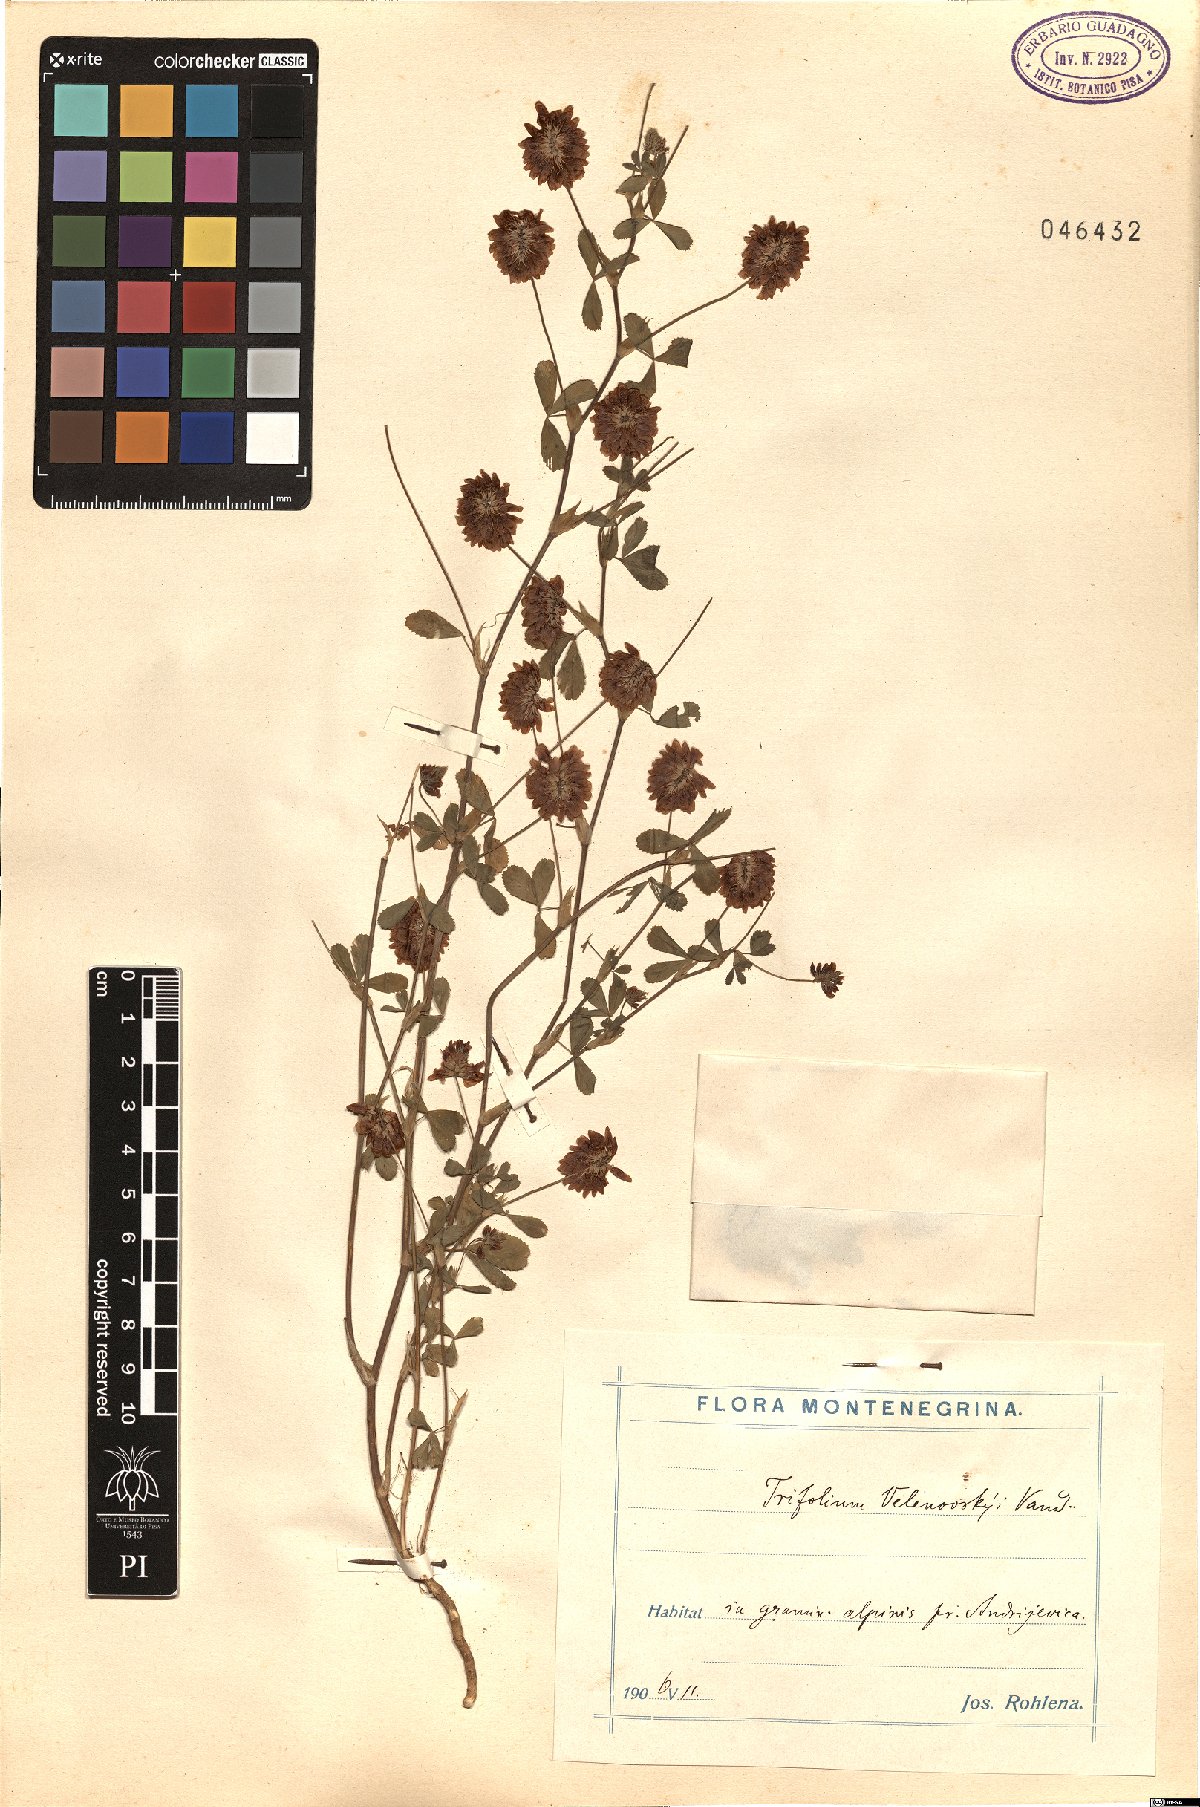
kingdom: Plantae
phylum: Tracheophyta
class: Magnoliopsida
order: Fabales
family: Fabaceae
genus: Trifolium
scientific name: Trifolium velenovskyi
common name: Velenovsky's clover
